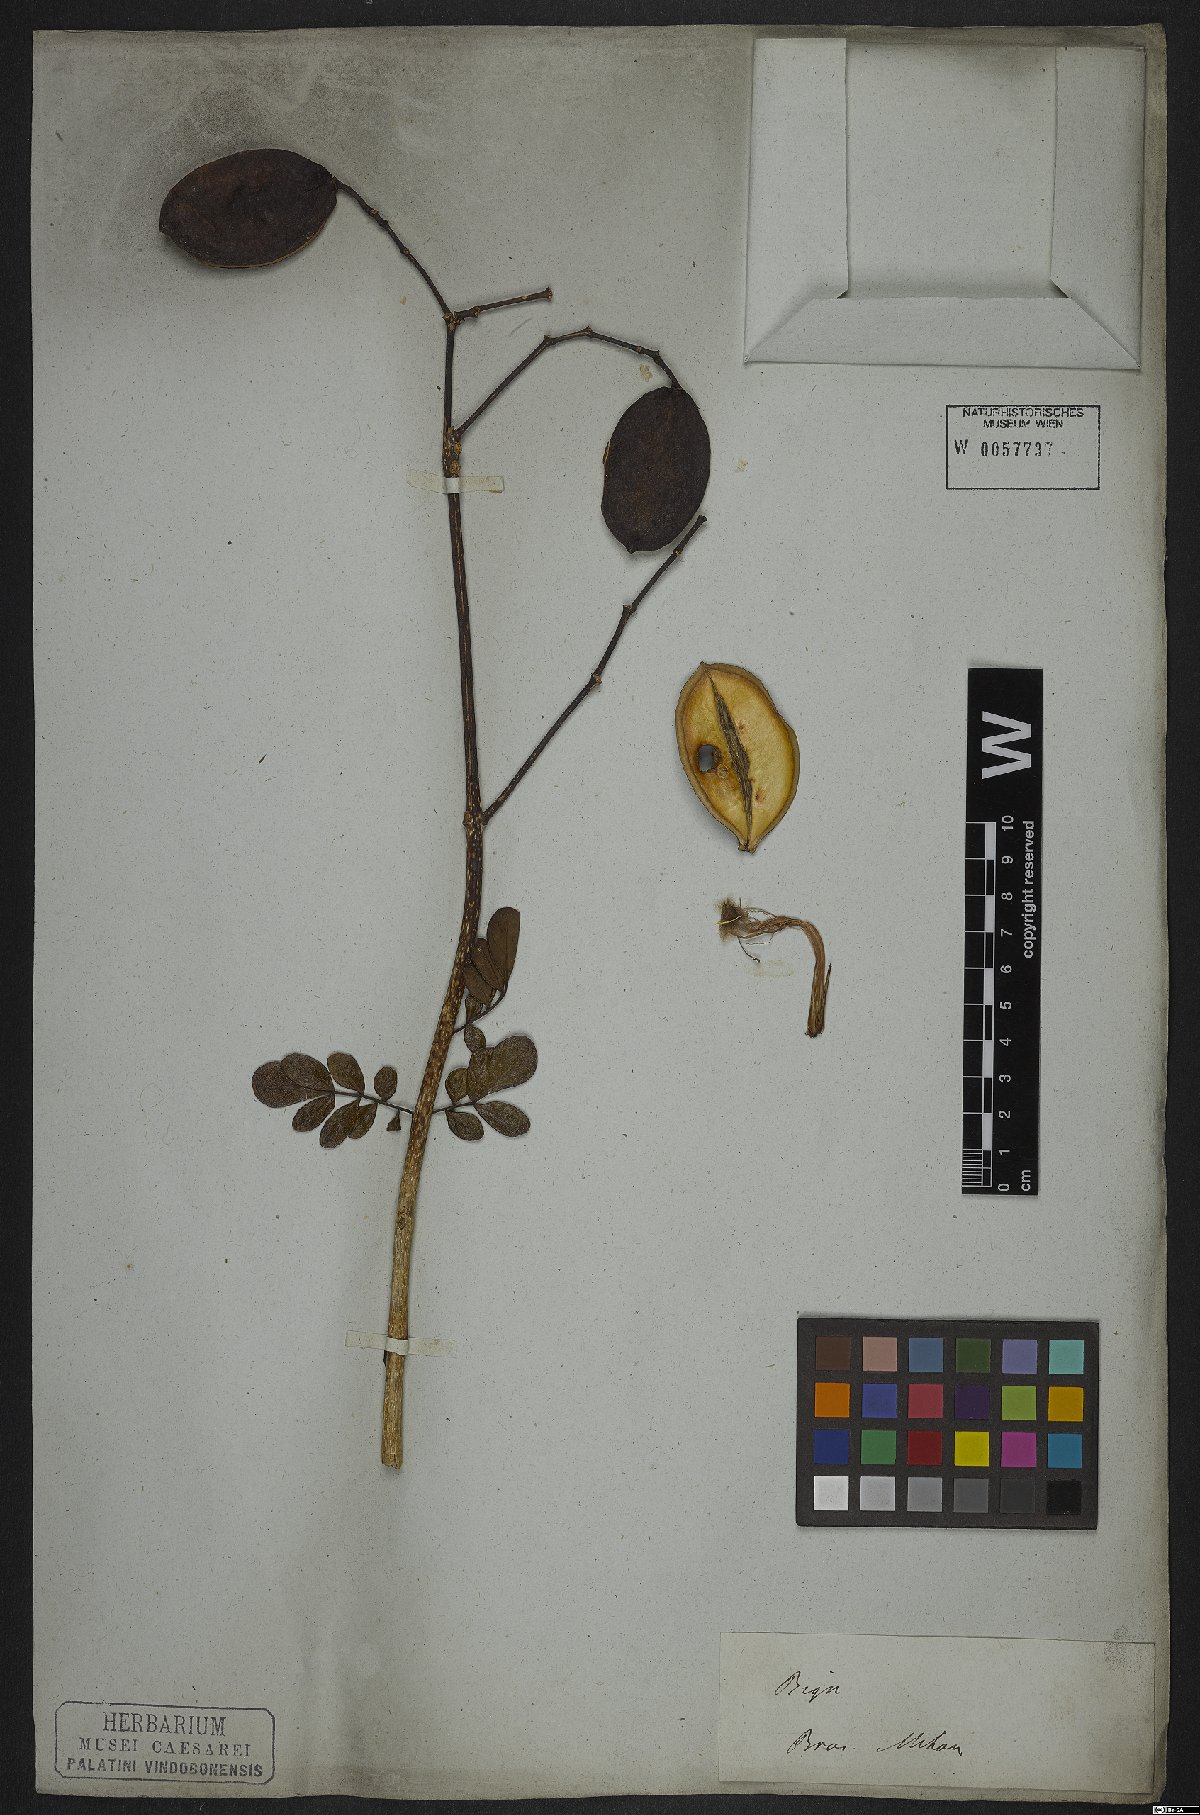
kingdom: Plantae
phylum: Tracheophyta
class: Magnoliopsida
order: Lamiales
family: Bignoniaceae
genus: Jacaranda
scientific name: Jacaranda caroba
